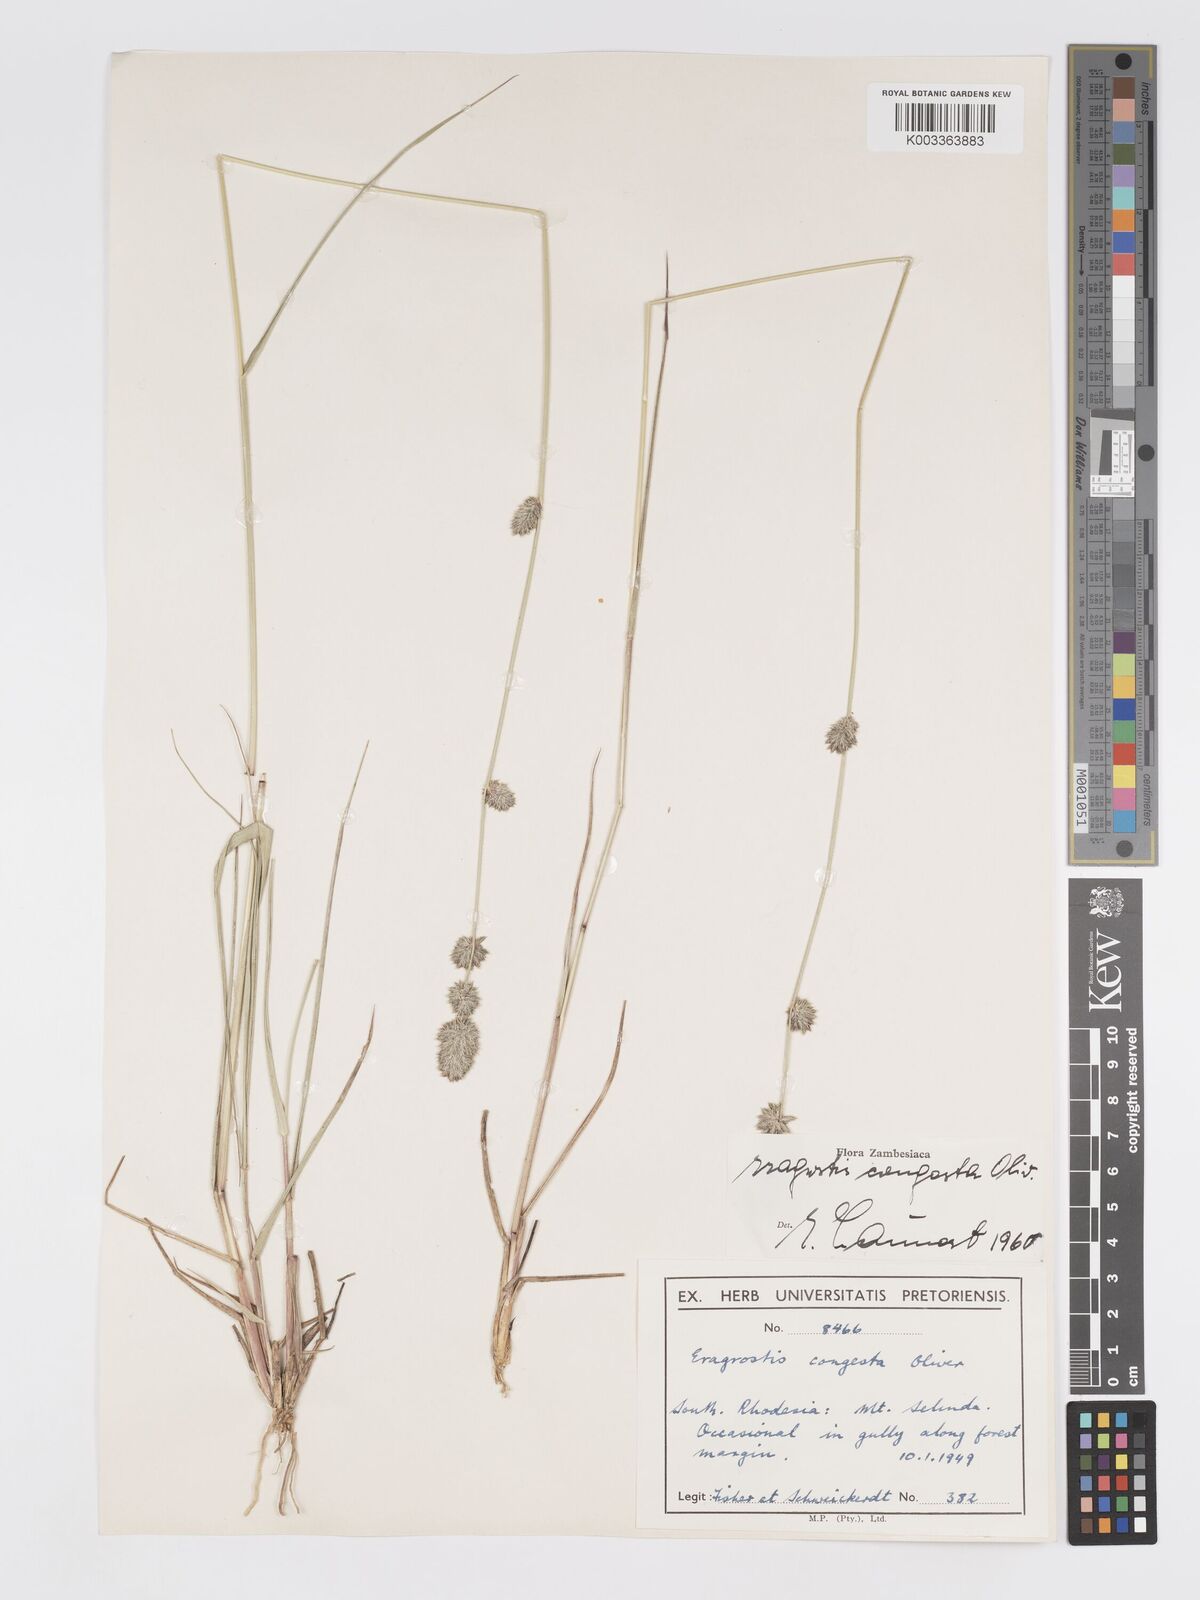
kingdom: Plantae
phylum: Tracheophyta
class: Liliopsida
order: Poales
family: Poaceae
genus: Eragrostis
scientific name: Eragrostis congesta
